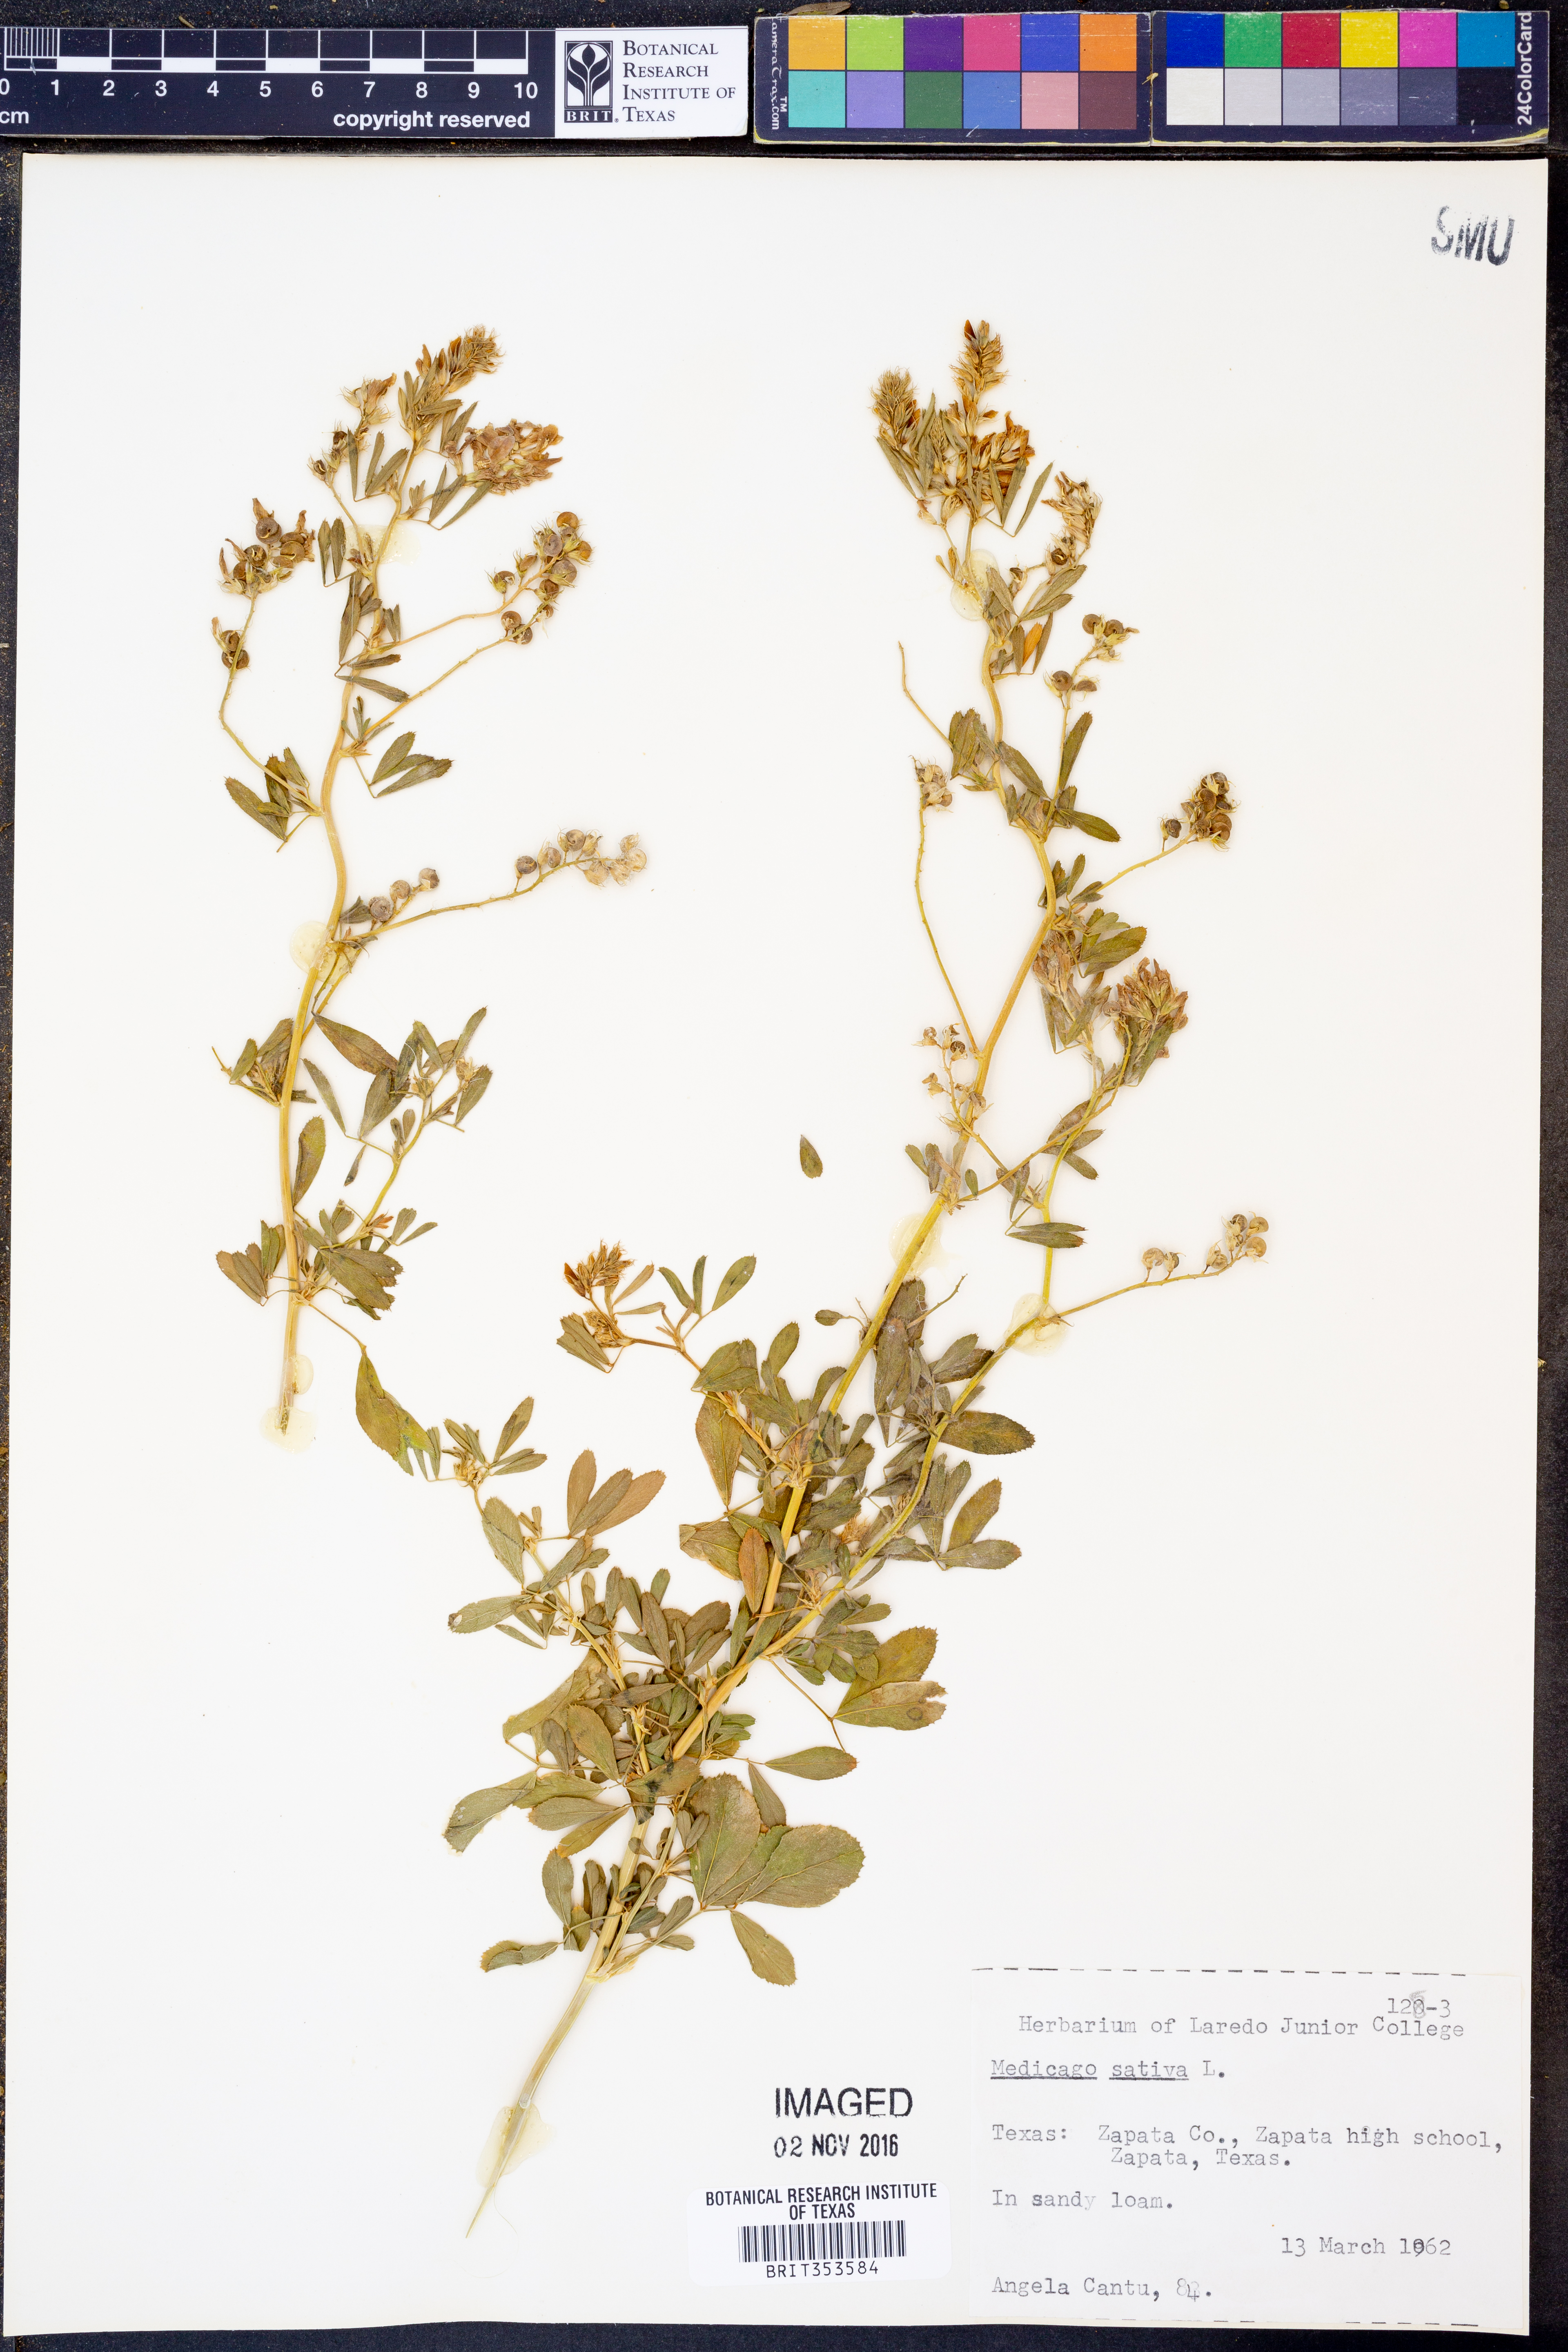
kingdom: Plantae
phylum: Tracheophyta
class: Magnoliopsida
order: Fabales
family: Fabaceae
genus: Medicago
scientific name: Medicago sativa
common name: Alfalfa
